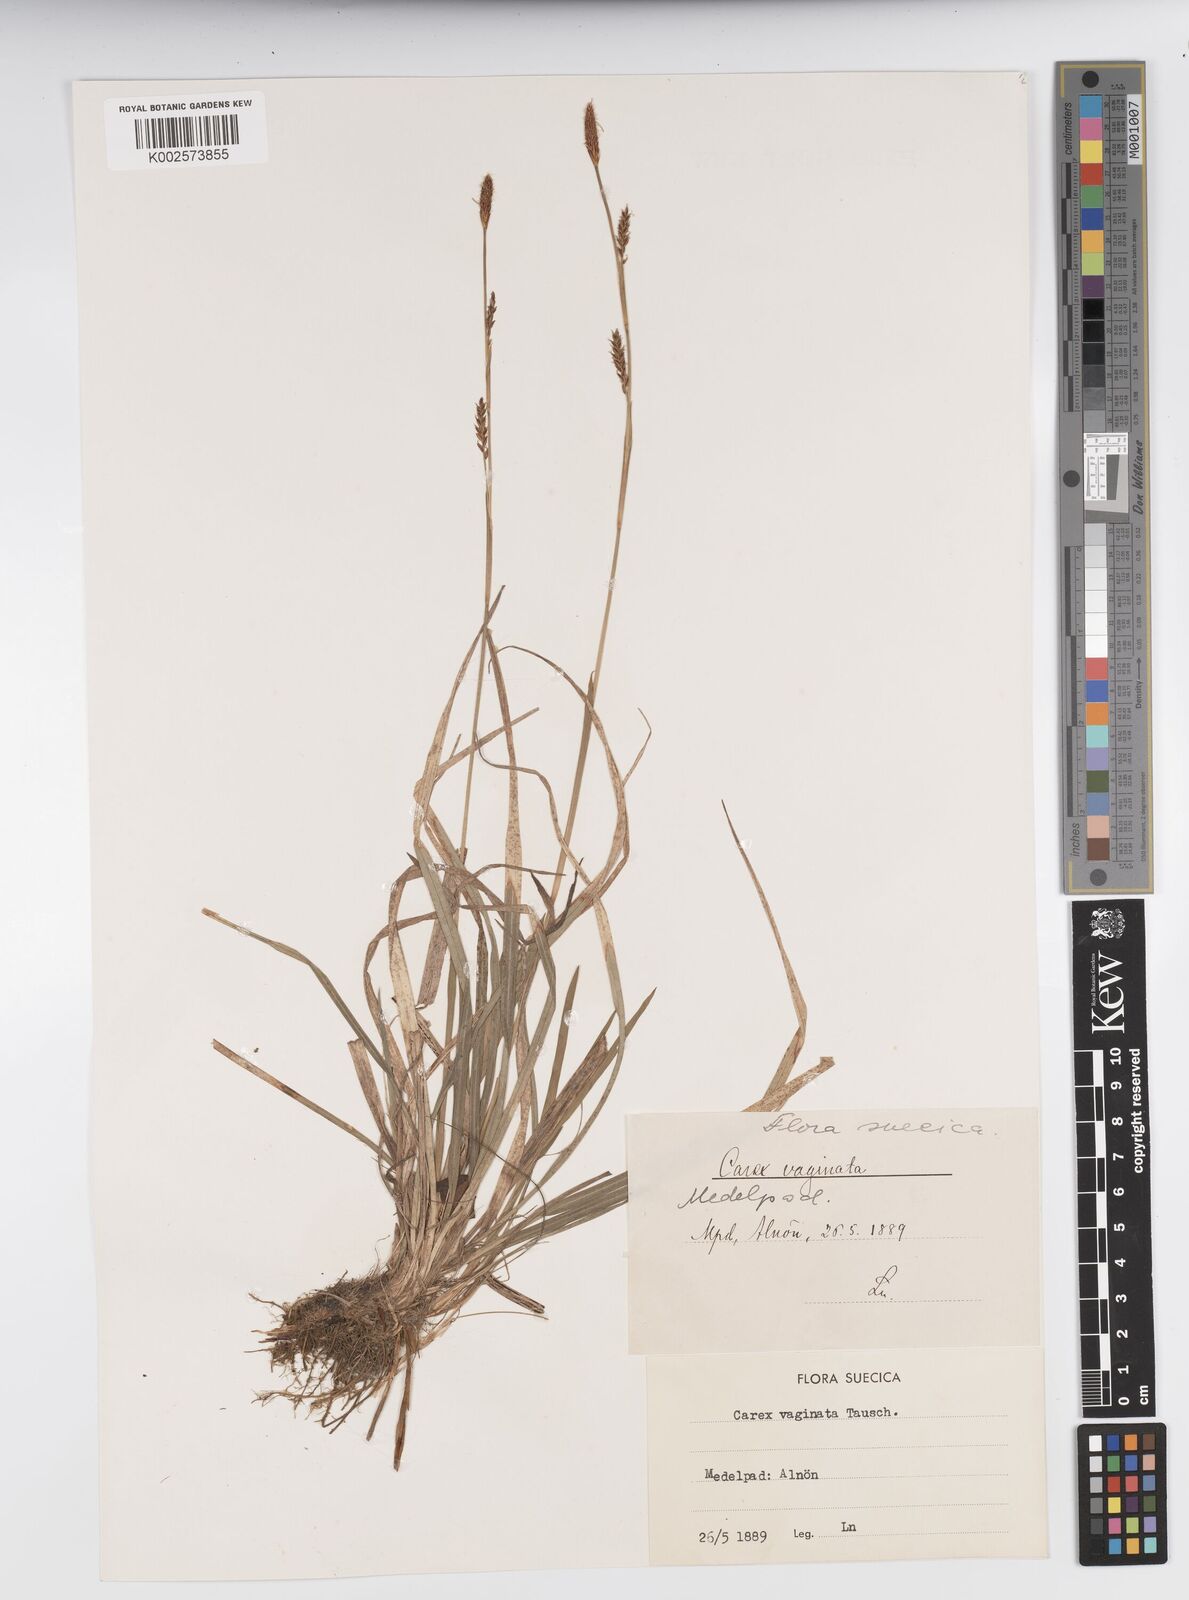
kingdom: Plantae
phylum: Tracheophyta
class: Liliopsida
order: Poales
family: Cyperaceae
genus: Carex
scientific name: Carex vaginata
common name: Sheathed sedge
